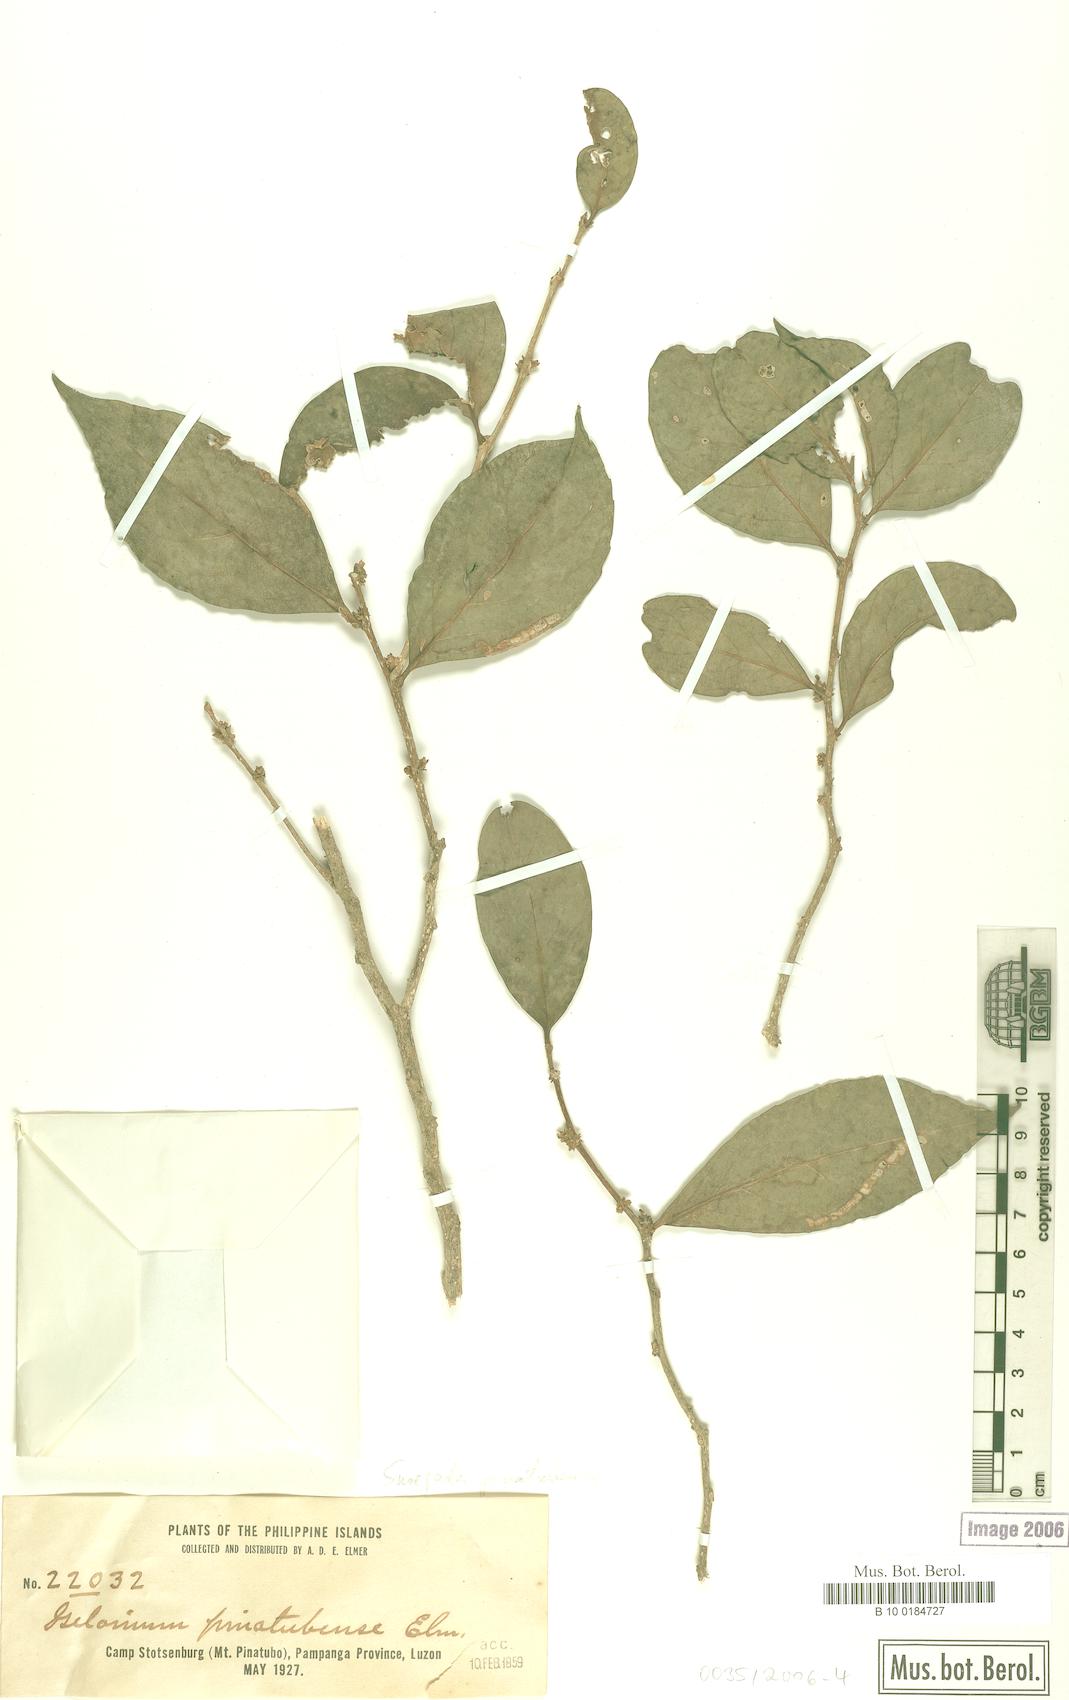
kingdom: Plantae
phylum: Tracheophyta
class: Magnoliopsida
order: Malpighiales
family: Salicaceae
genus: Casearia
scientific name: Casearia trivalvis
